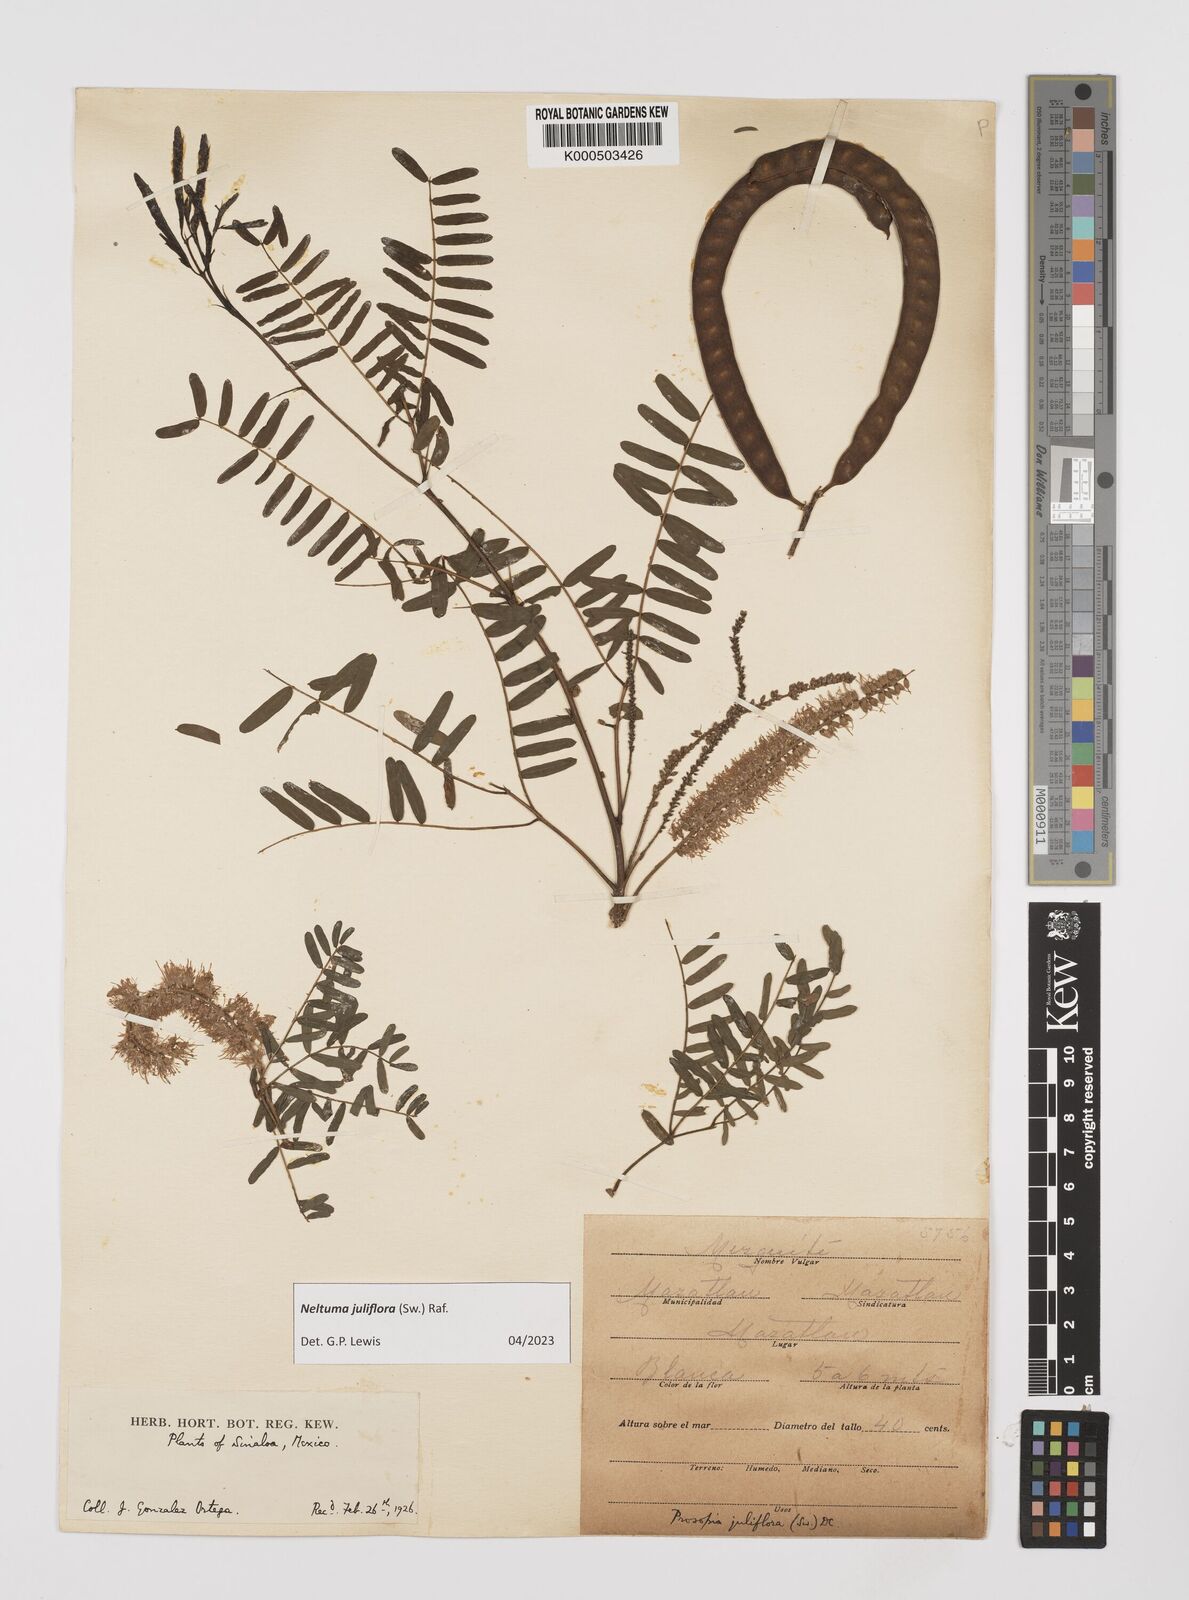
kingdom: Plantae
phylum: Tracheophyta
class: Magnoliopsida
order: Fabales
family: Fabaceae
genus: Prosopis
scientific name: Prosopis juliflora
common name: Mesquite
